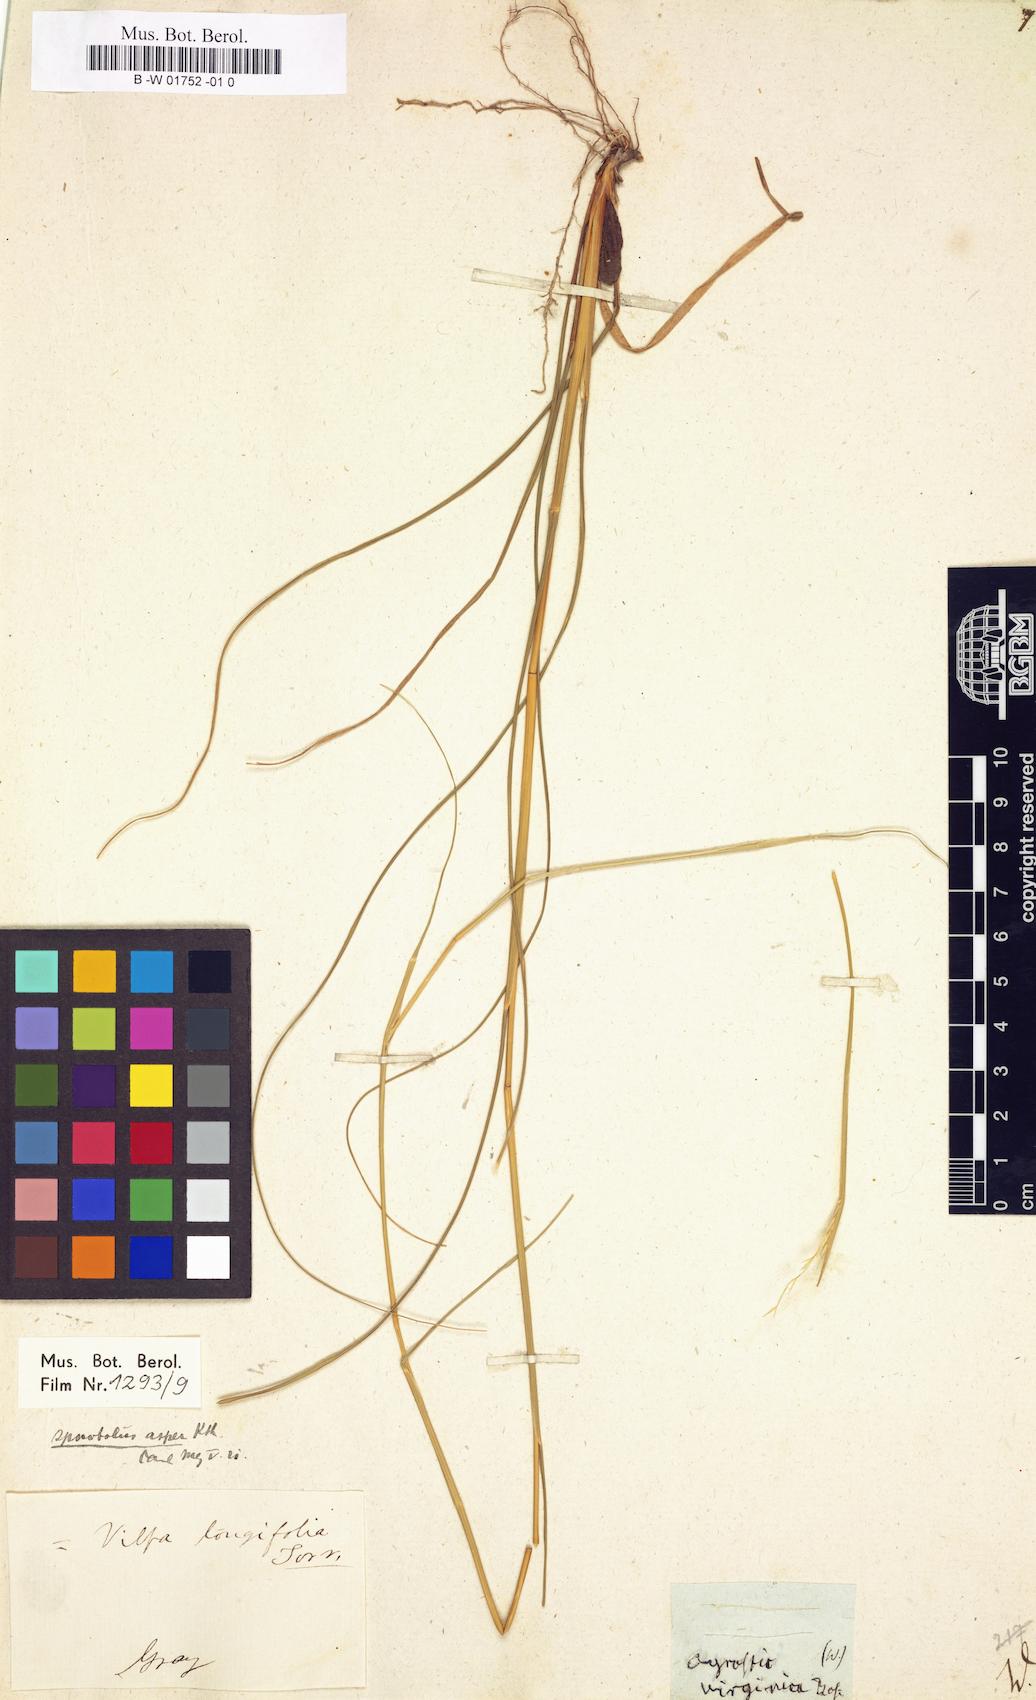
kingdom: Plantae
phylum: Tracheophyta
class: Liliopsida
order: Poales
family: Poaceae
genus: Agrostis
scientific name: Agrostis virginica
